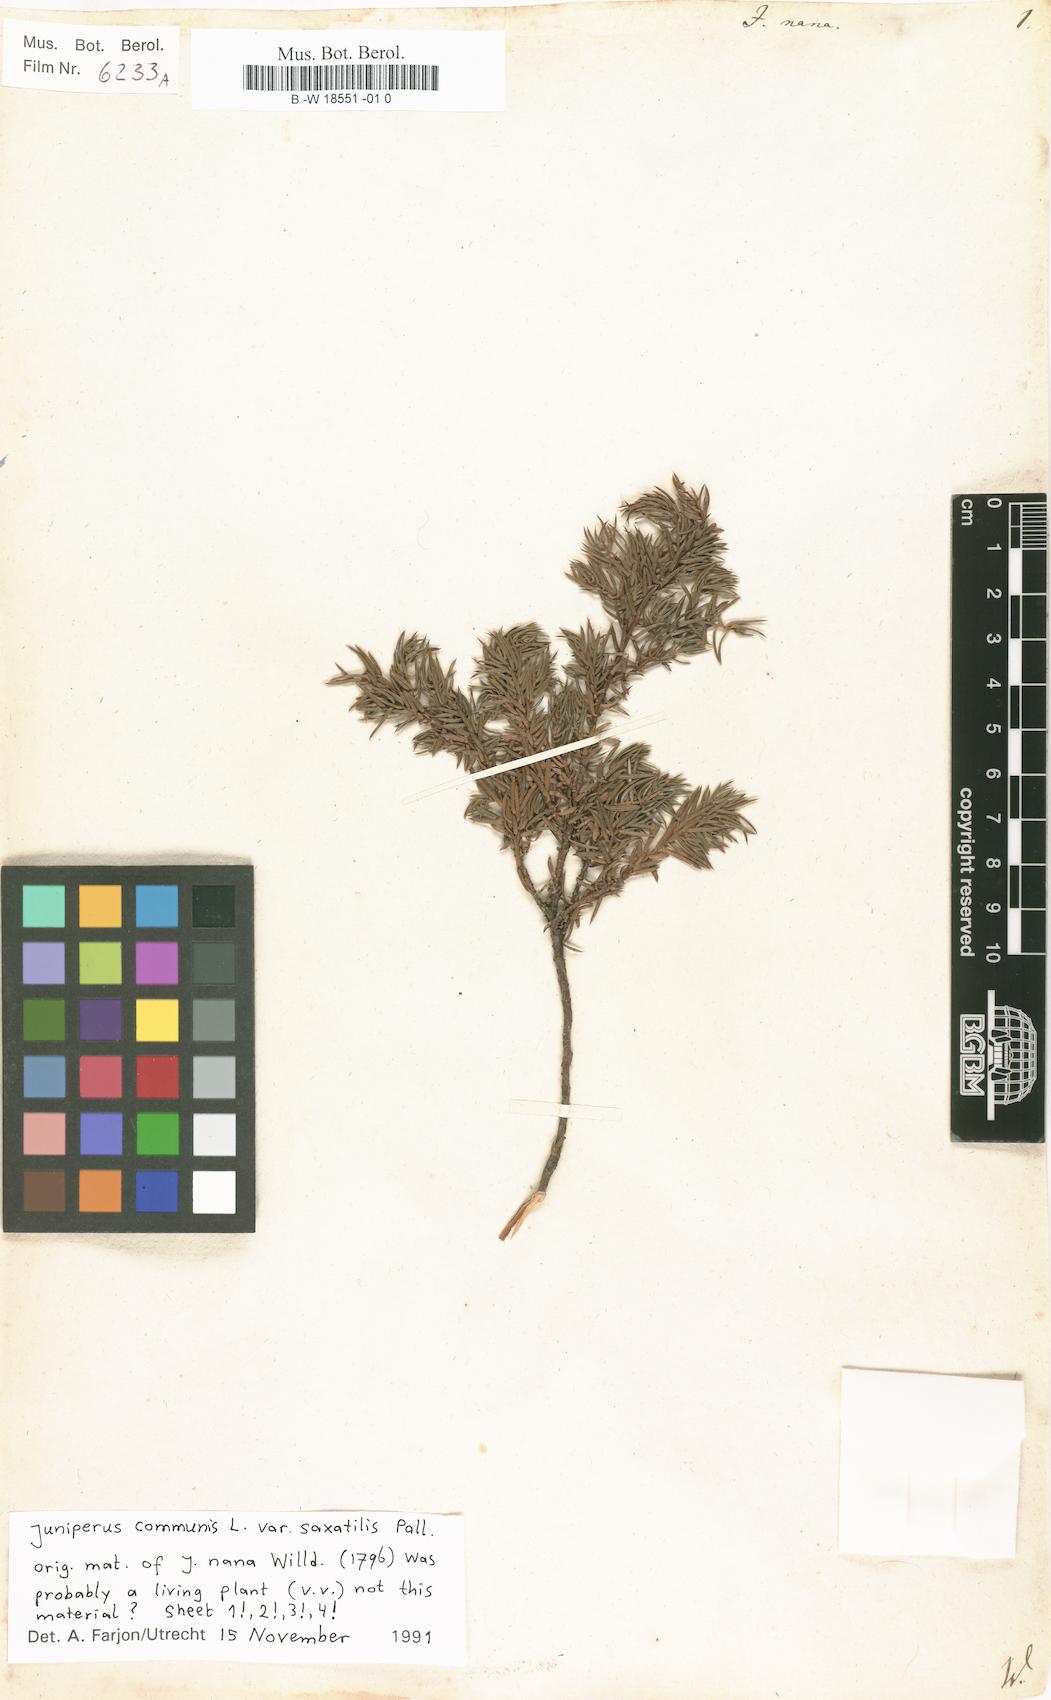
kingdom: Plantae
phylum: Tracheophyta
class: Pinopsida
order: Pinales
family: Cupressaceae
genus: Juniperus
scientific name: Juniperus communis
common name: Common juniper
